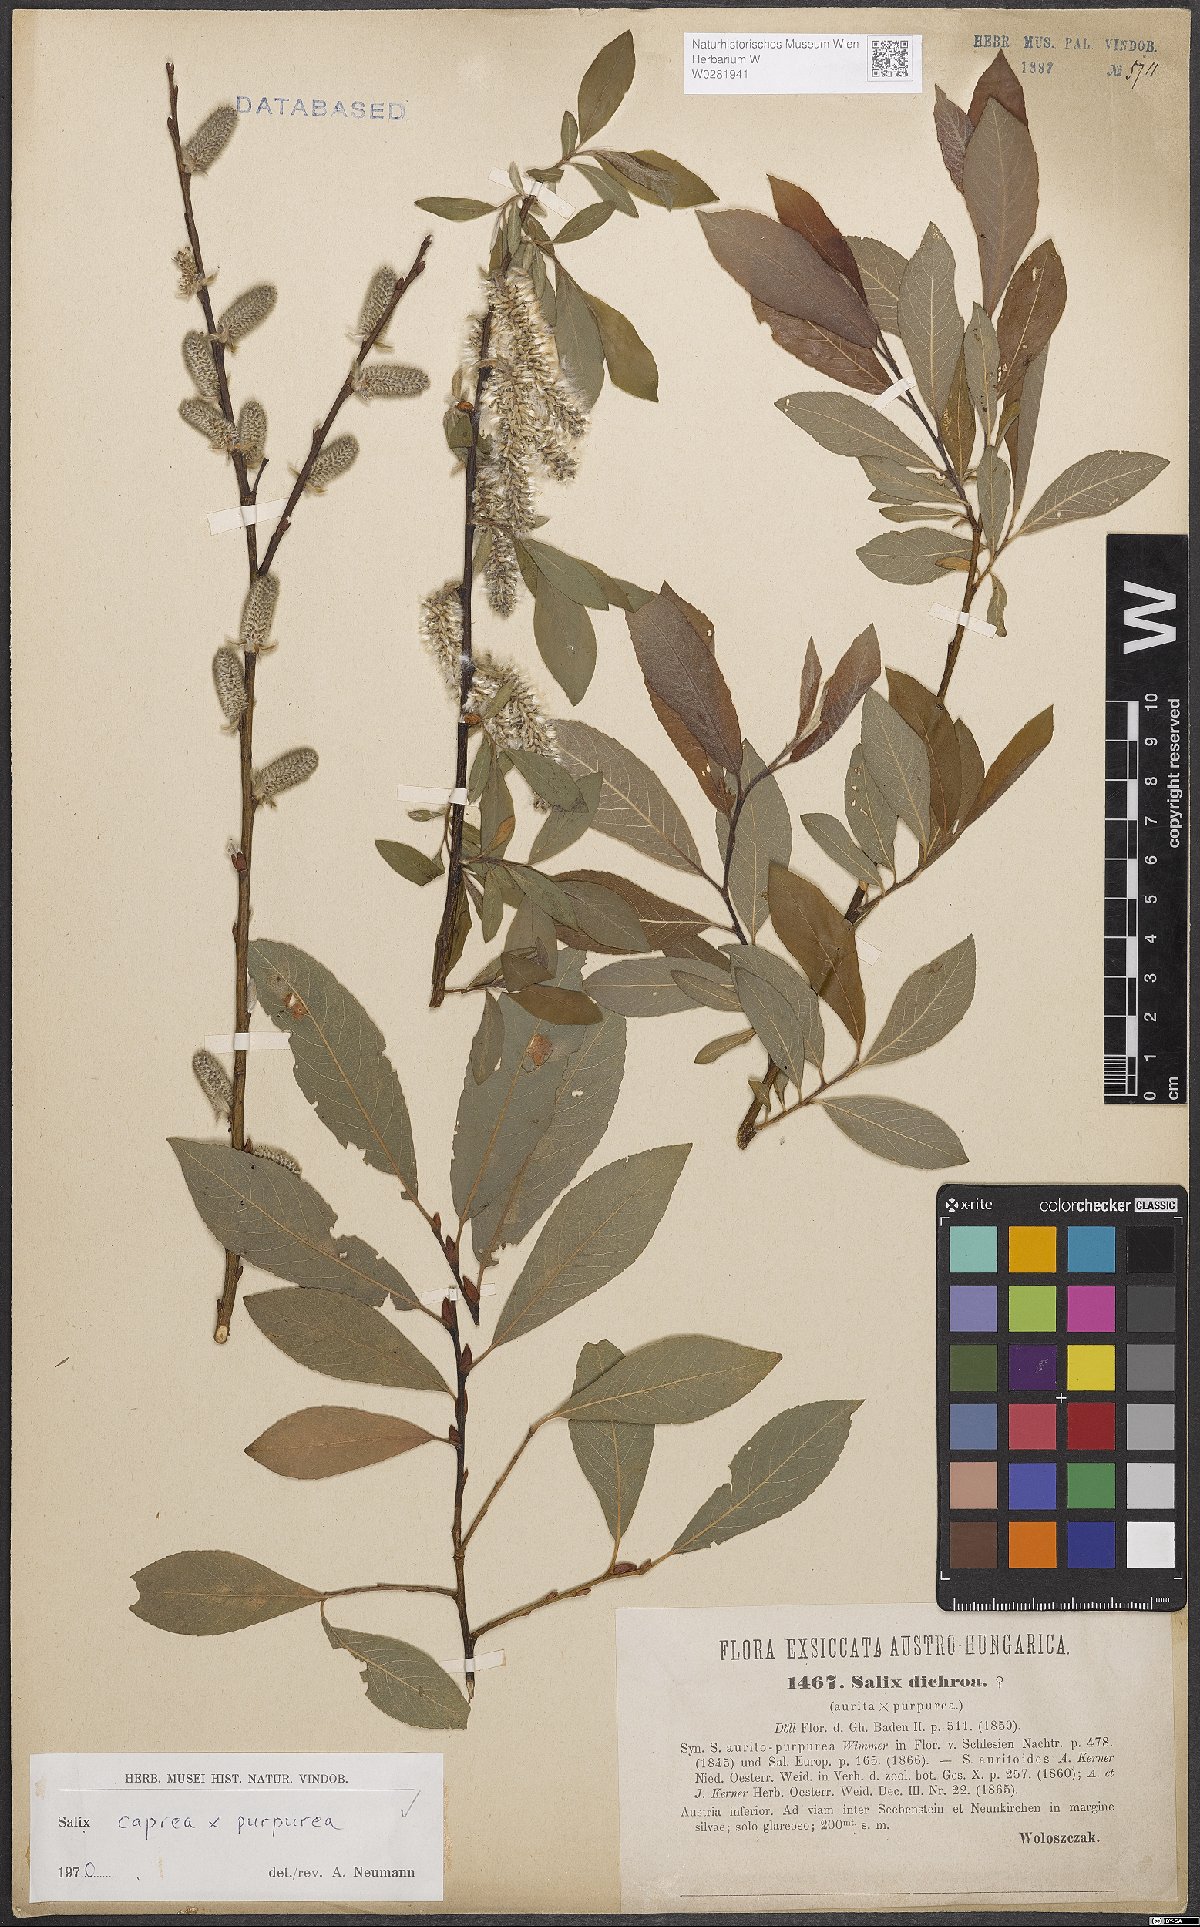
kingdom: Plantae
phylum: Tracheophyta
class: Magnoliopsida
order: Malpighiales
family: Salicaceae
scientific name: Salicaceae
